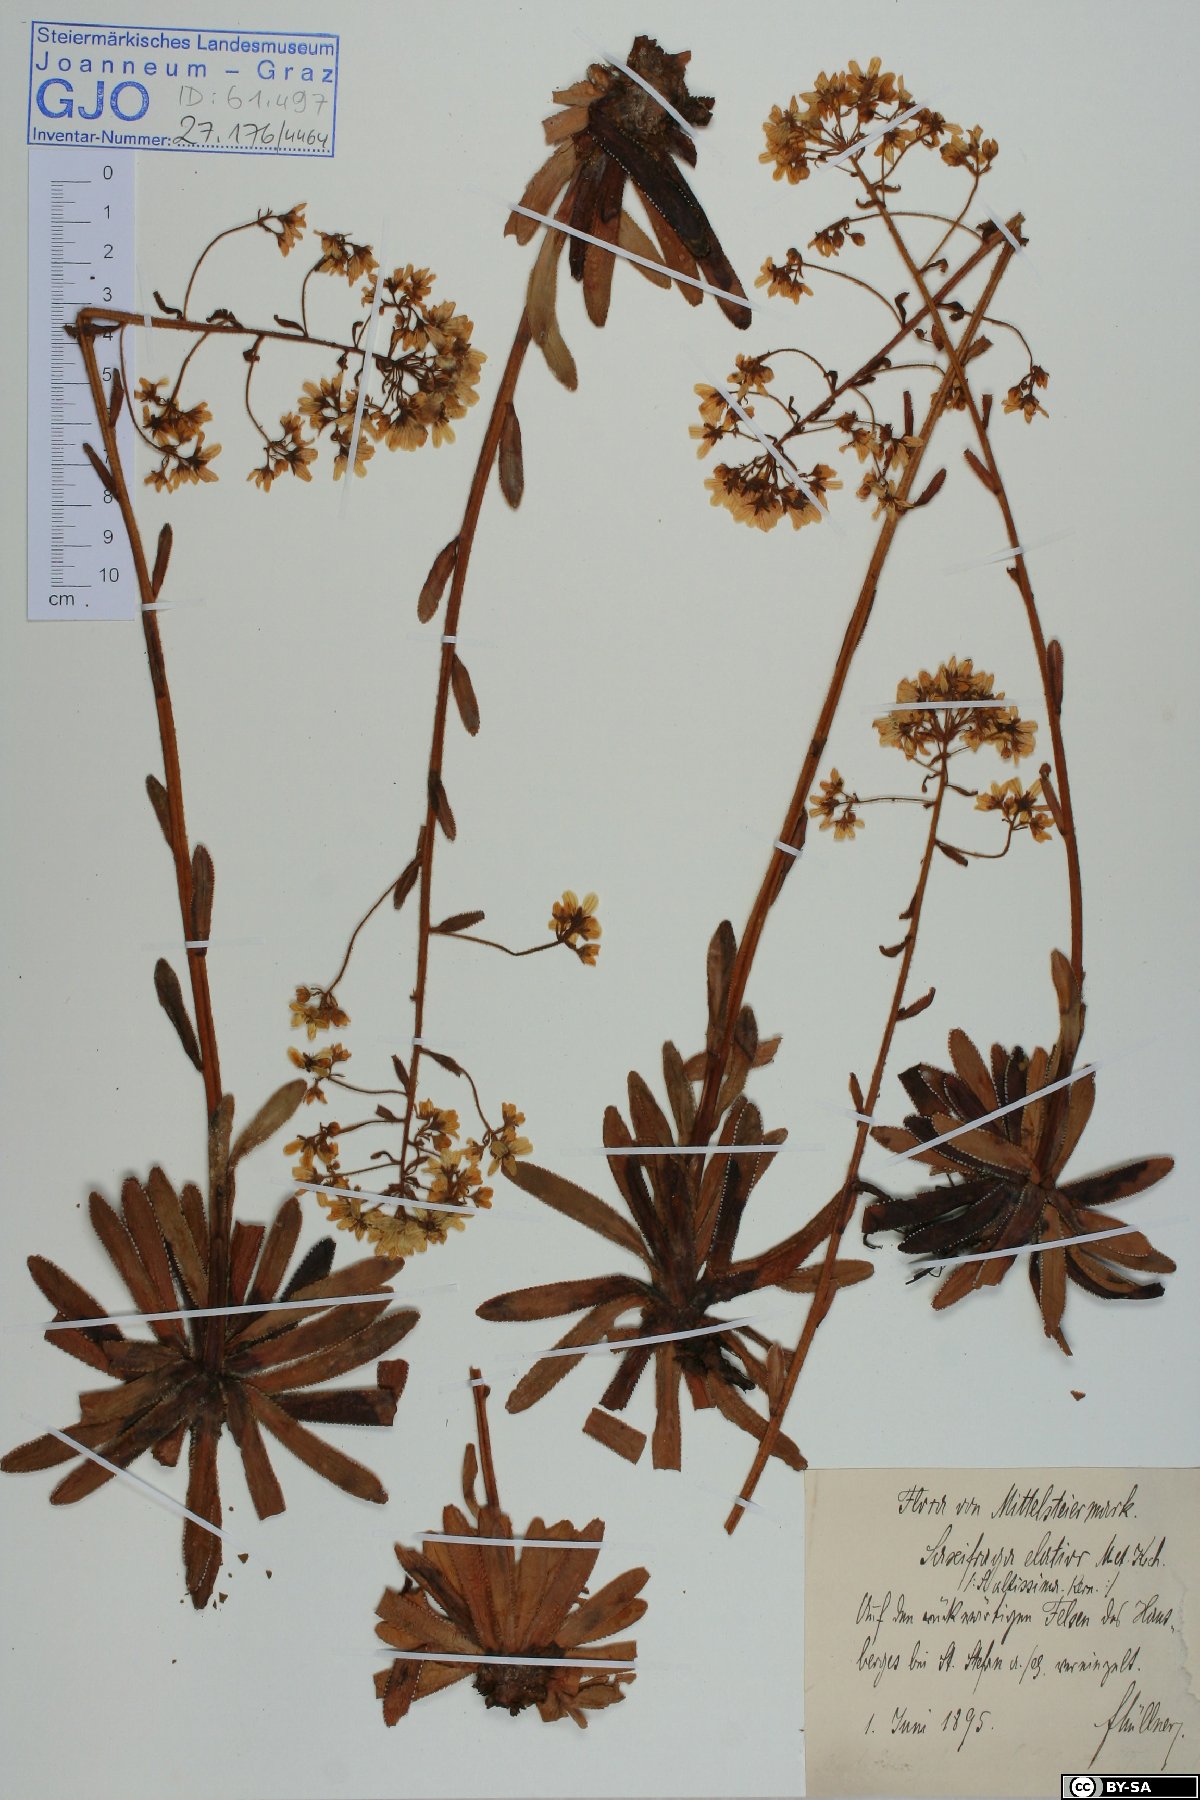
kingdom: Plantae
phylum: Tracheophyta
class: Magnoliopsida
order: Saxifragales
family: Saxifragaceae
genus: Saxifraga
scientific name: Saxifraga hostii
